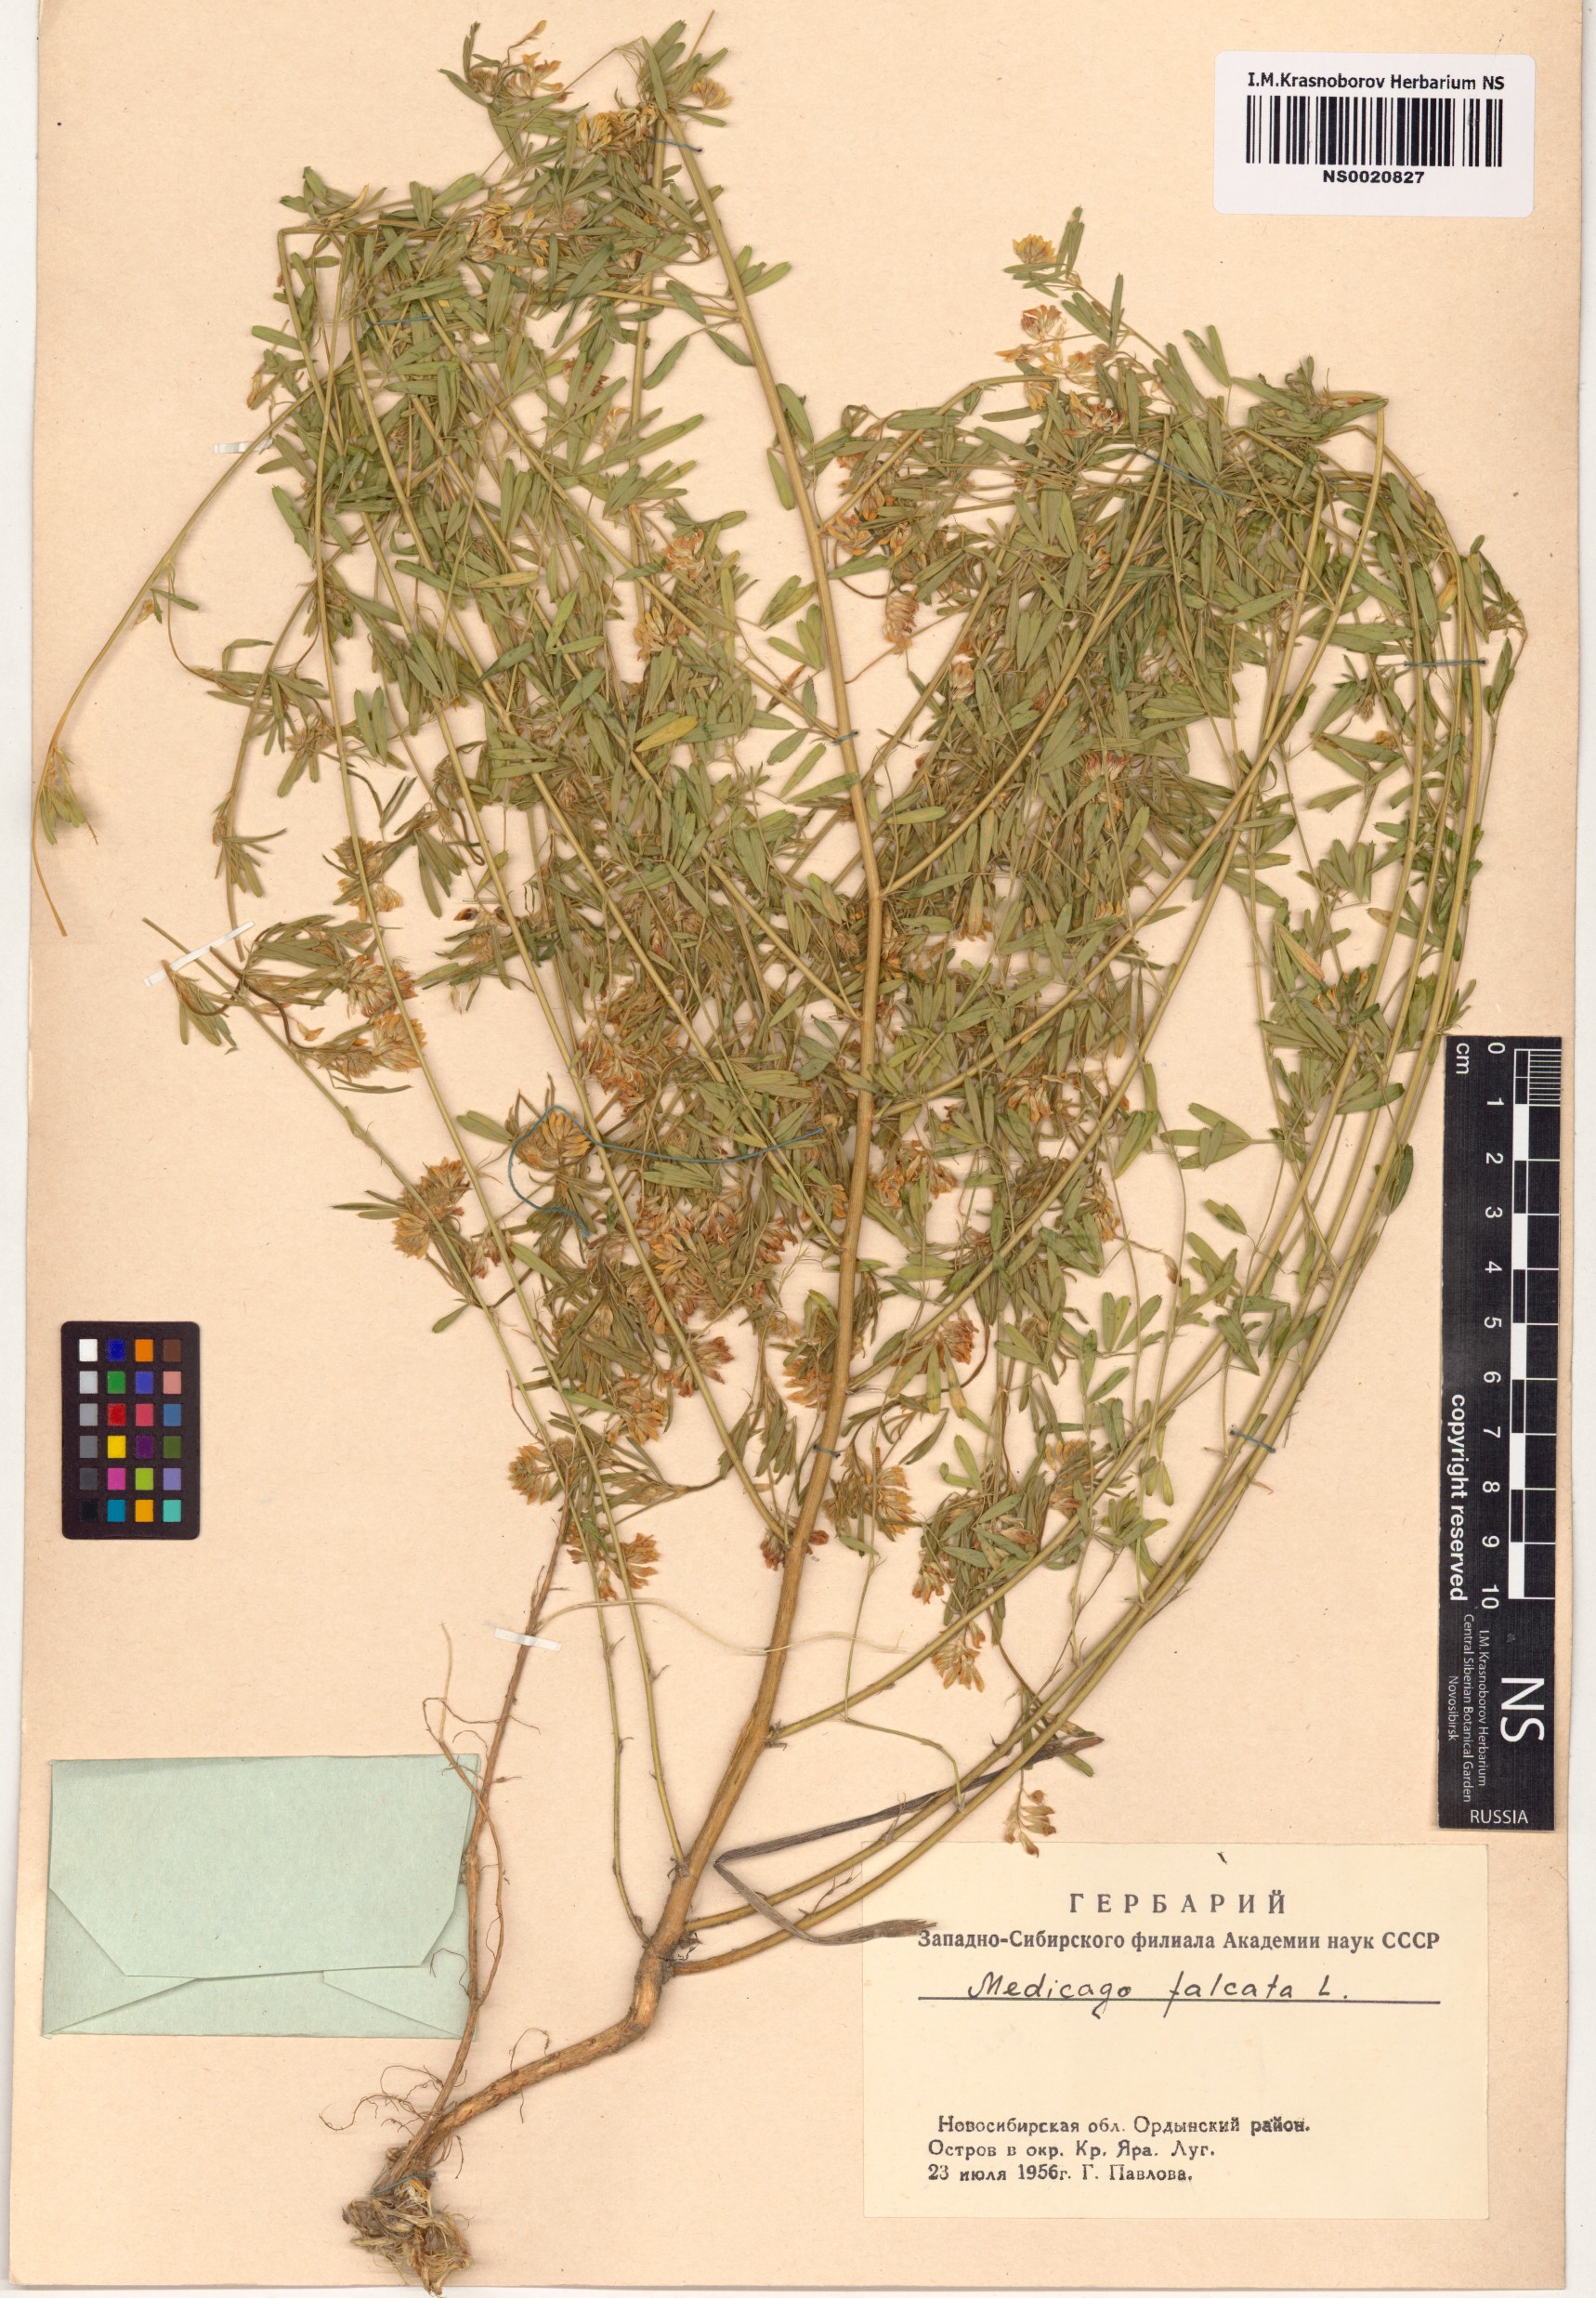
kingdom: Plantae
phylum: Tracheophyta
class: Magnoliopsida
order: Fabales
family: Fabaceae
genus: Medicago
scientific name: Medicago falcata
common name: Sickle medick
